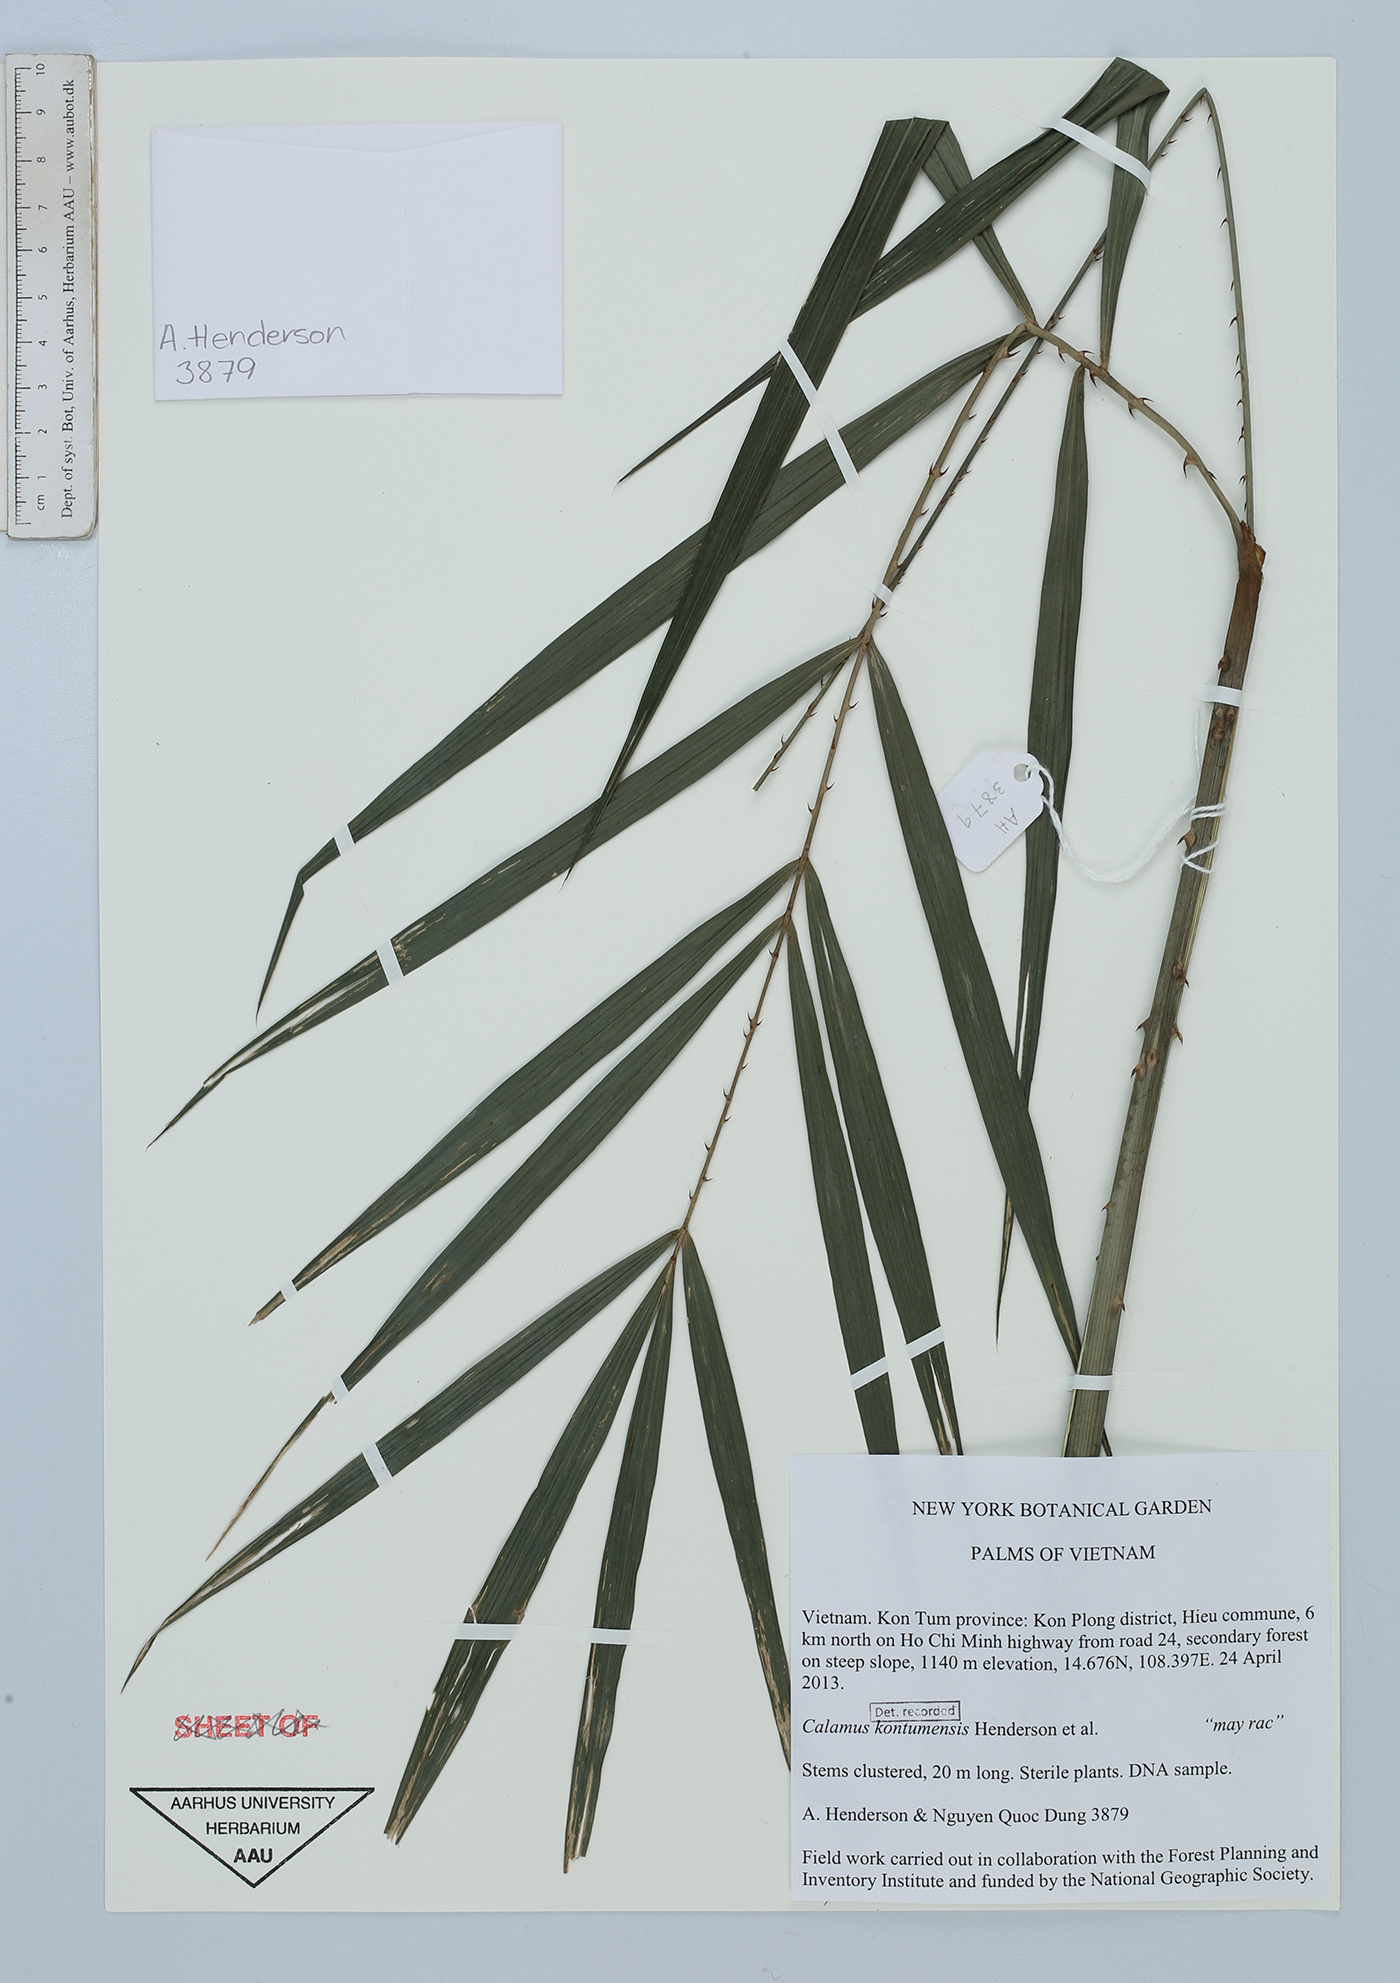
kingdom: Plantae
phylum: Tracheophyta
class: Liliopsida
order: Arecales
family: Arecaceae
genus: Calamus
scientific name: Calamus kontumensis
